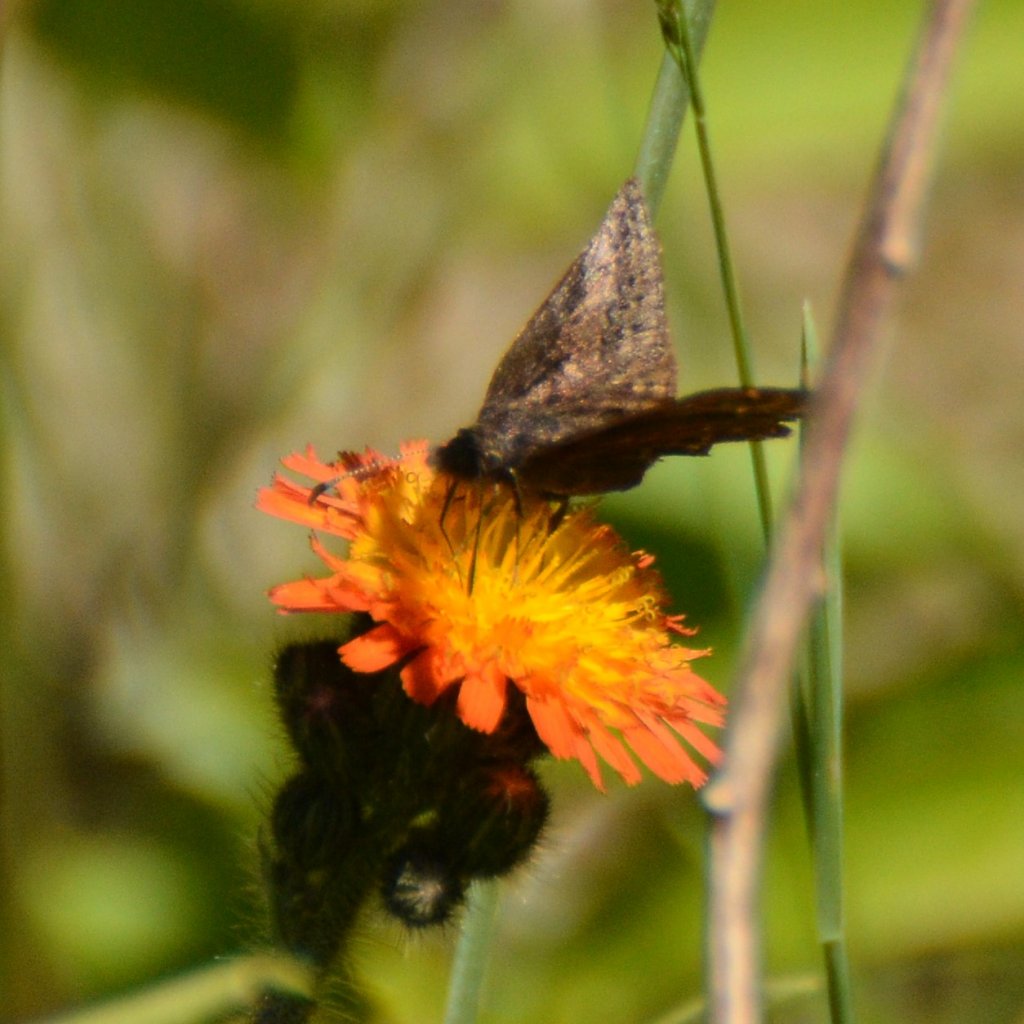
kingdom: Animalia
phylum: Arthropoda
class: Insecta
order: Lepidoptera
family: Hesperiidae
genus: Erynnis
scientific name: Erynnis icelus
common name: Dreamy Duskywing
